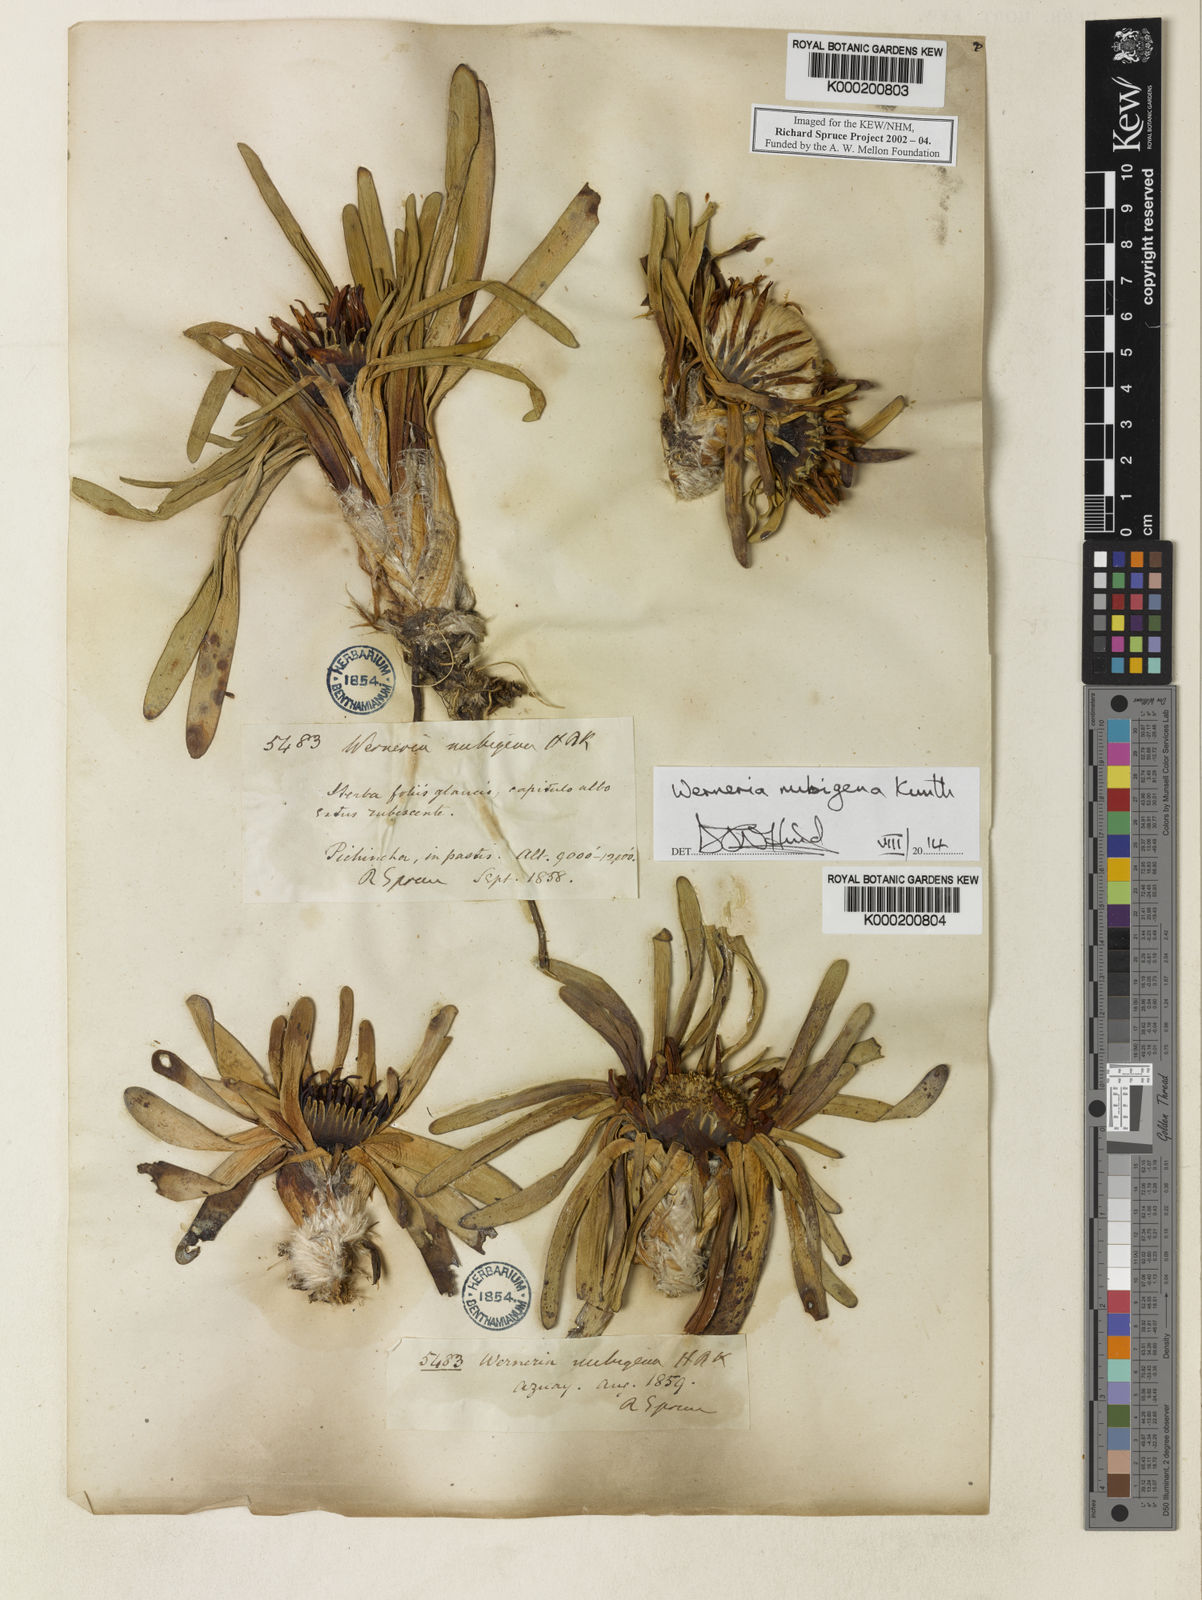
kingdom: Plantae
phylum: Tracheophyta
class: Magnoliopsida
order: Asterales
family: Asteraceae
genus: Rockhausenia
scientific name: Rockhausenia nubigena
